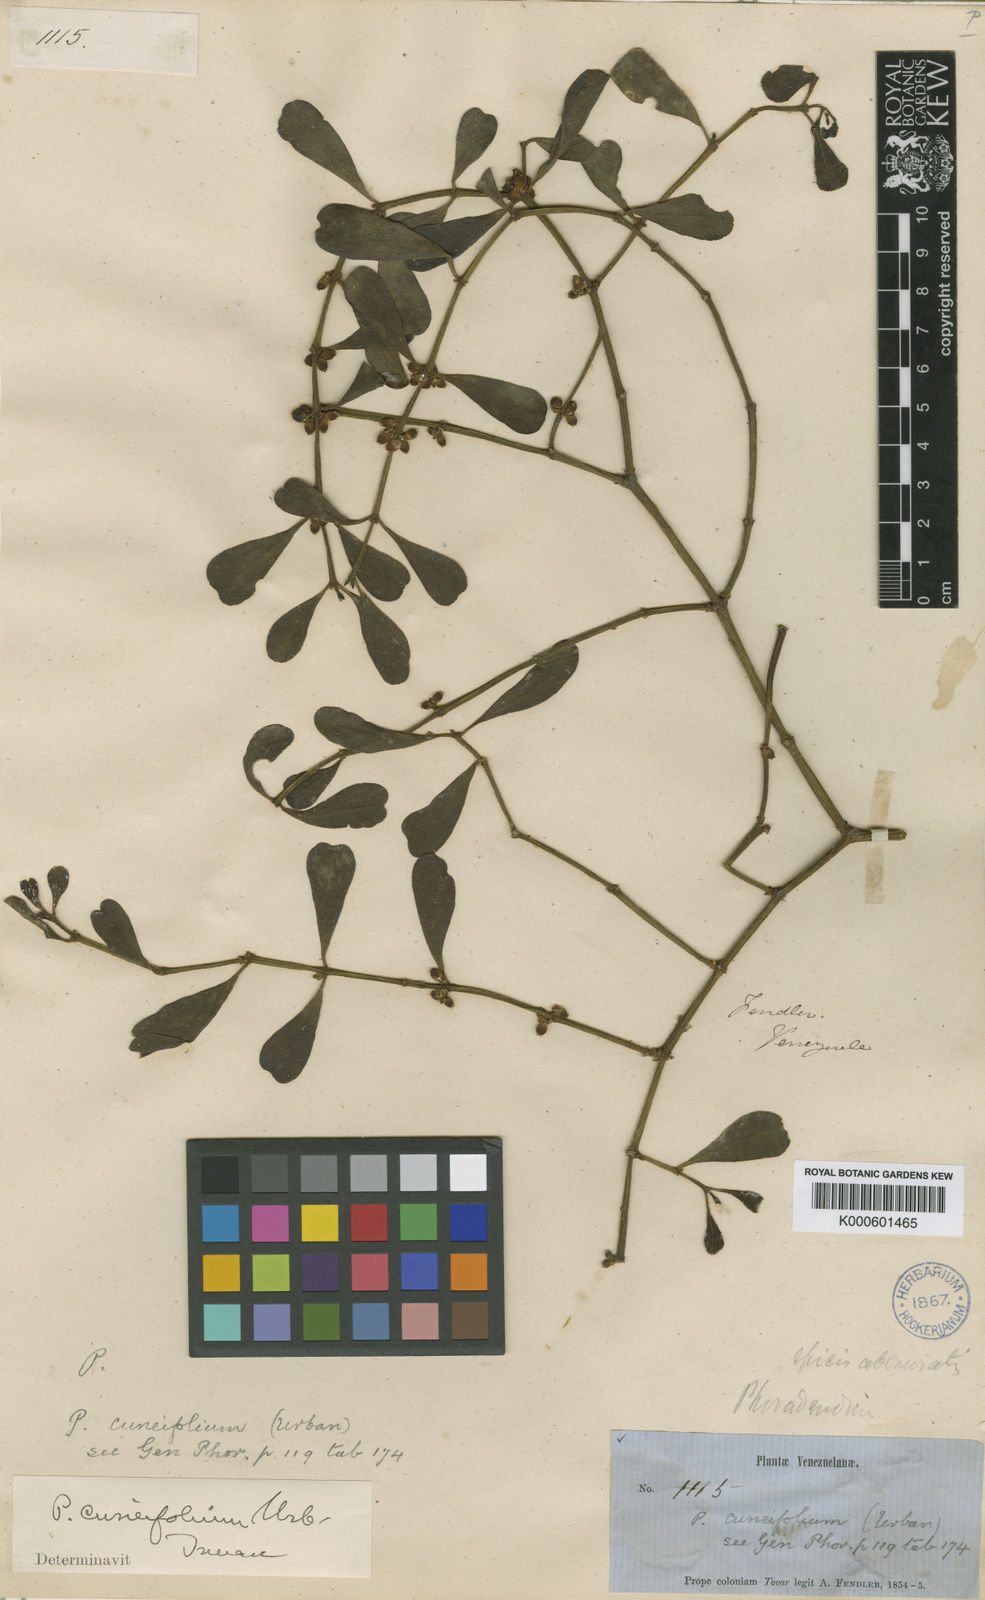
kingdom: Plantae
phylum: Tracheophyta
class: Magnoliopsida
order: Santalales
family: Viscaceae
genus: Phoradendron
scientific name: Phoradendron cuneifolium
